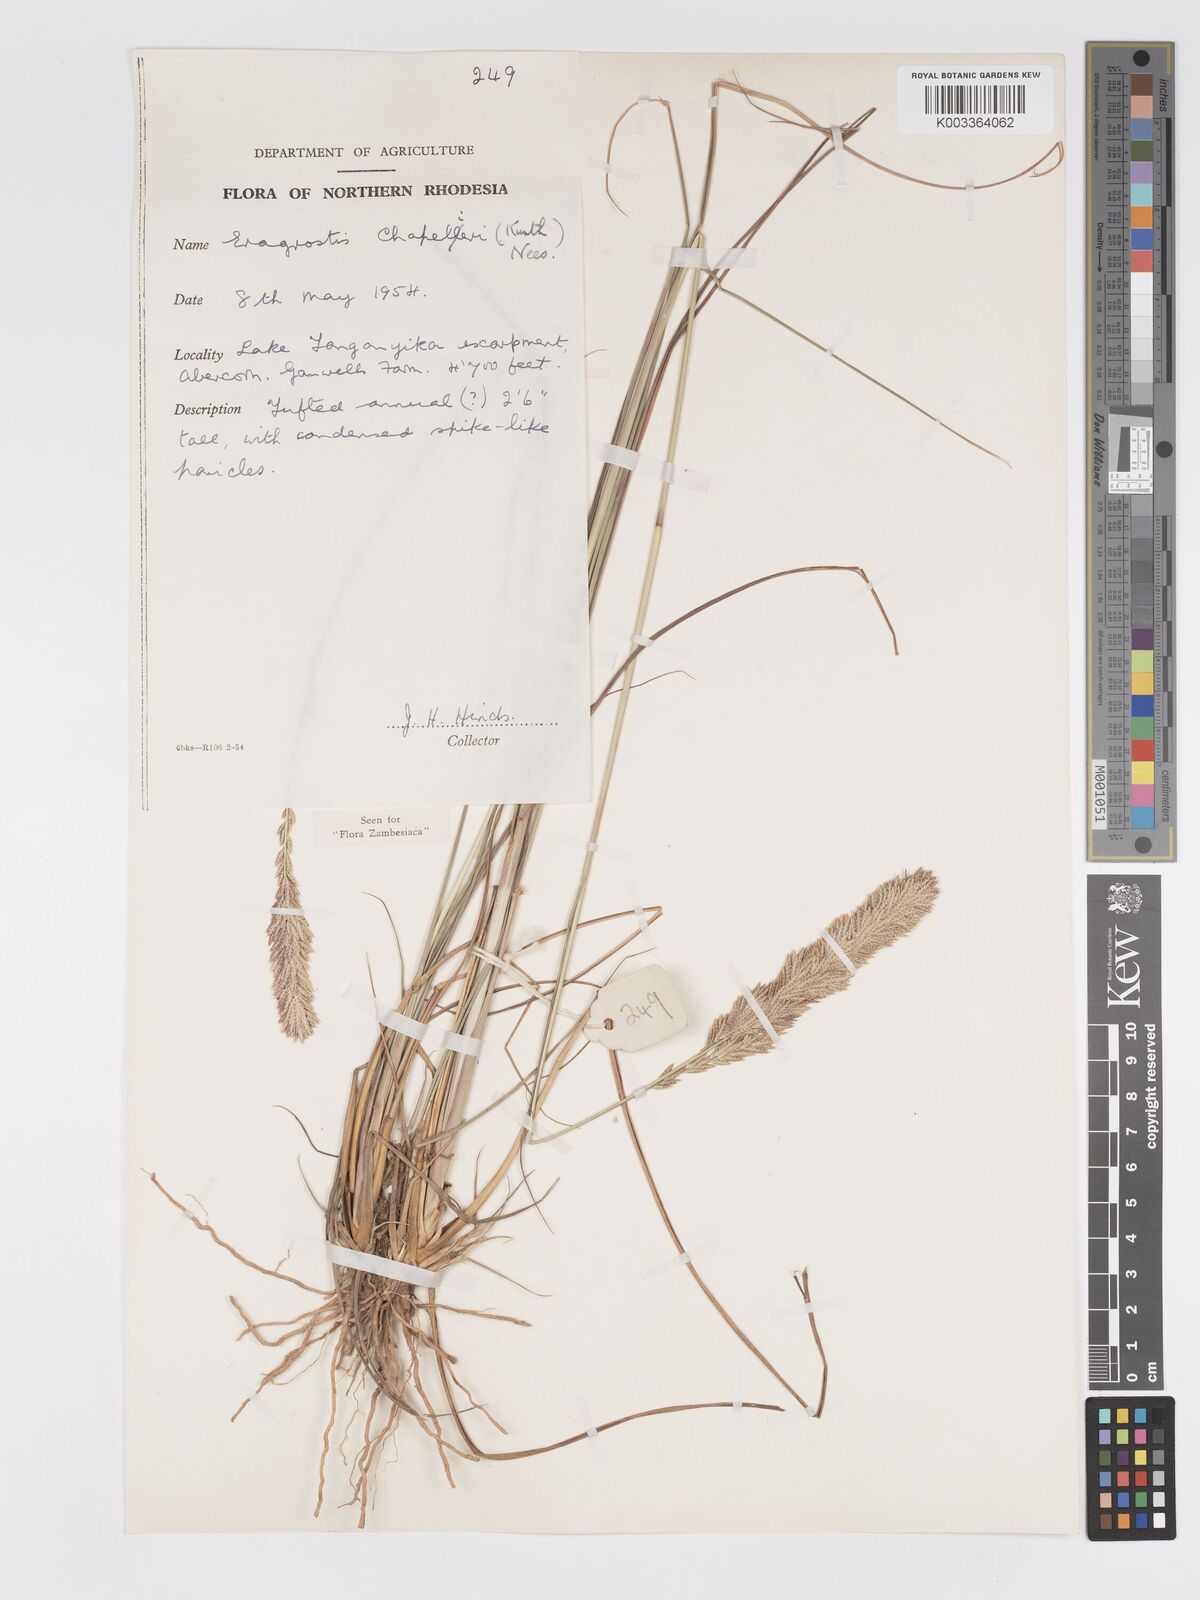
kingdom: Plantae
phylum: Tracheophyta
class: Liliopsida
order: Poales
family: Poaceae
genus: Eragrostis
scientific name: Eragrostis chapelieri
